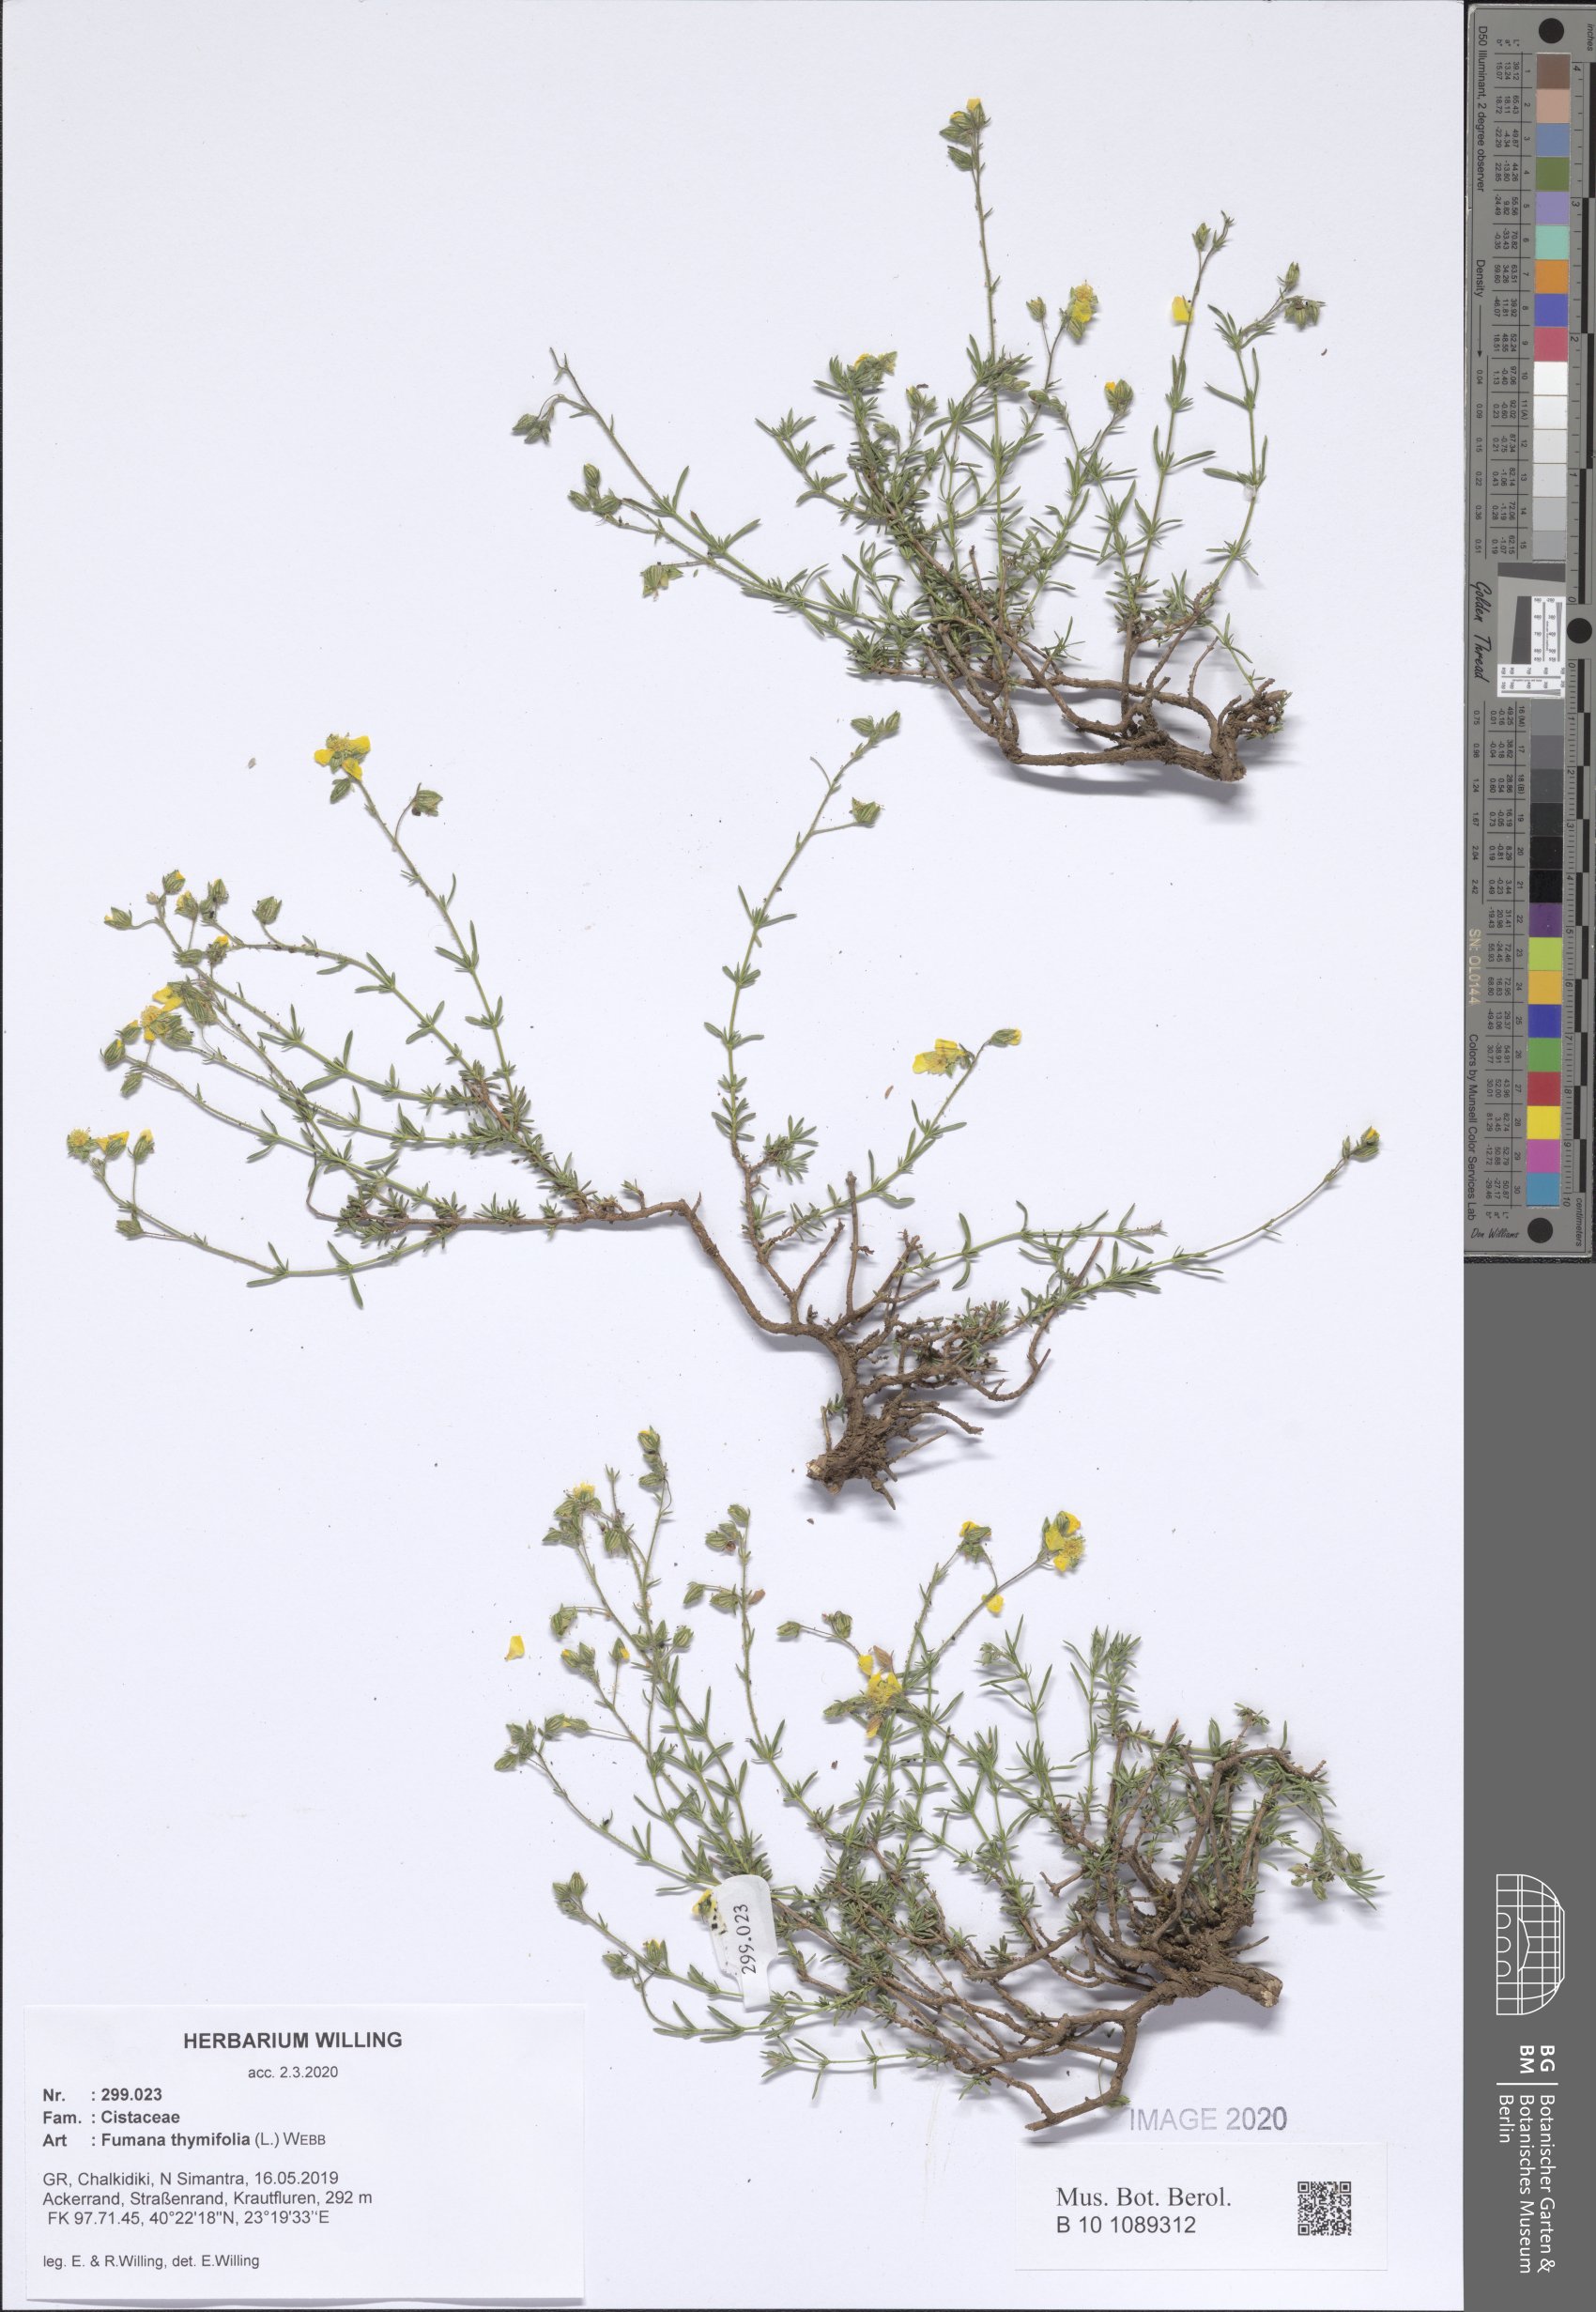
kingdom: Plantae
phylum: Tracheophyta
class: Magnoliopsida
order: Malvales
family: Cistaceae
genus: Fumana
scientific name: Fumana thymifolia
